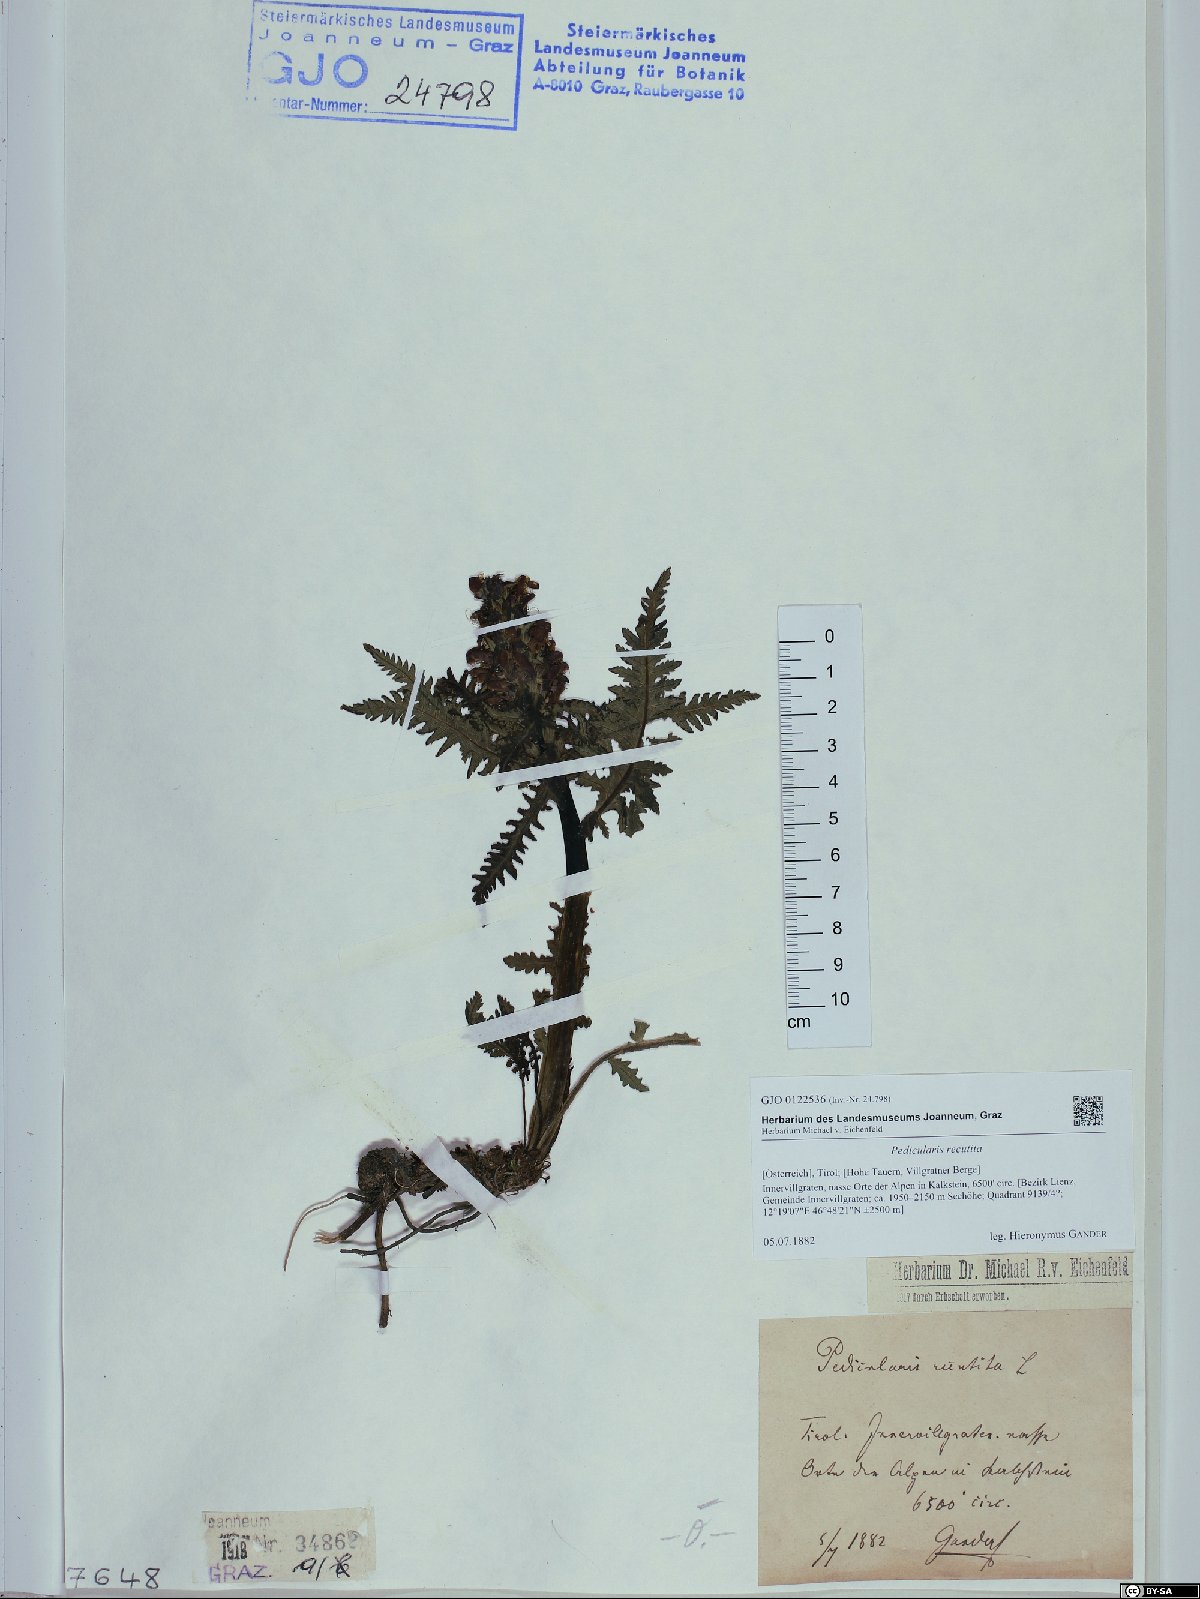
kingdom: Plantae
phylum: Tracheophyta
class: Magnoliopsida
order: Lamiales
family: Orobanchaceae
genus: Pedicularis
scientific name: Pedicularis recutita
